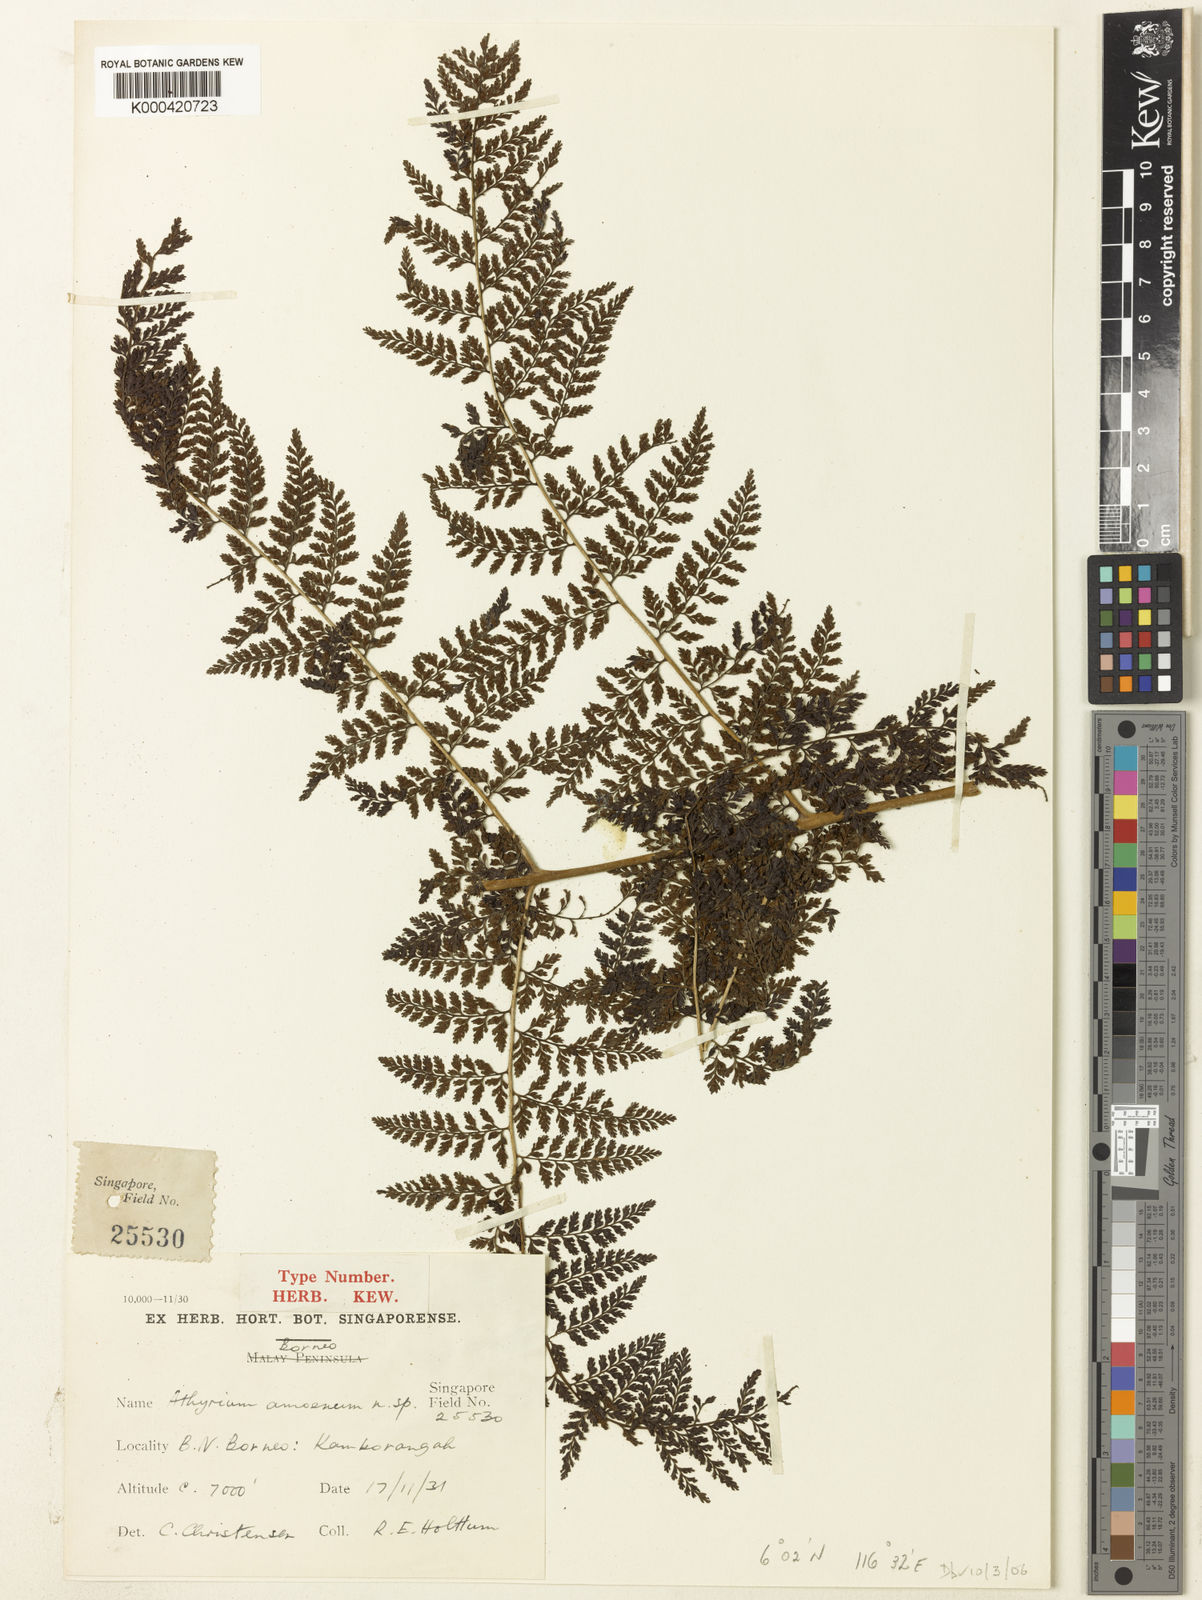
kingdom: Plantae
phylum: Tracheophyta
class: Polypodiopsida
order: Polypodiales
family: Athyriaceae
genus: Athyrium
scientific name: Athyrium amoenum
